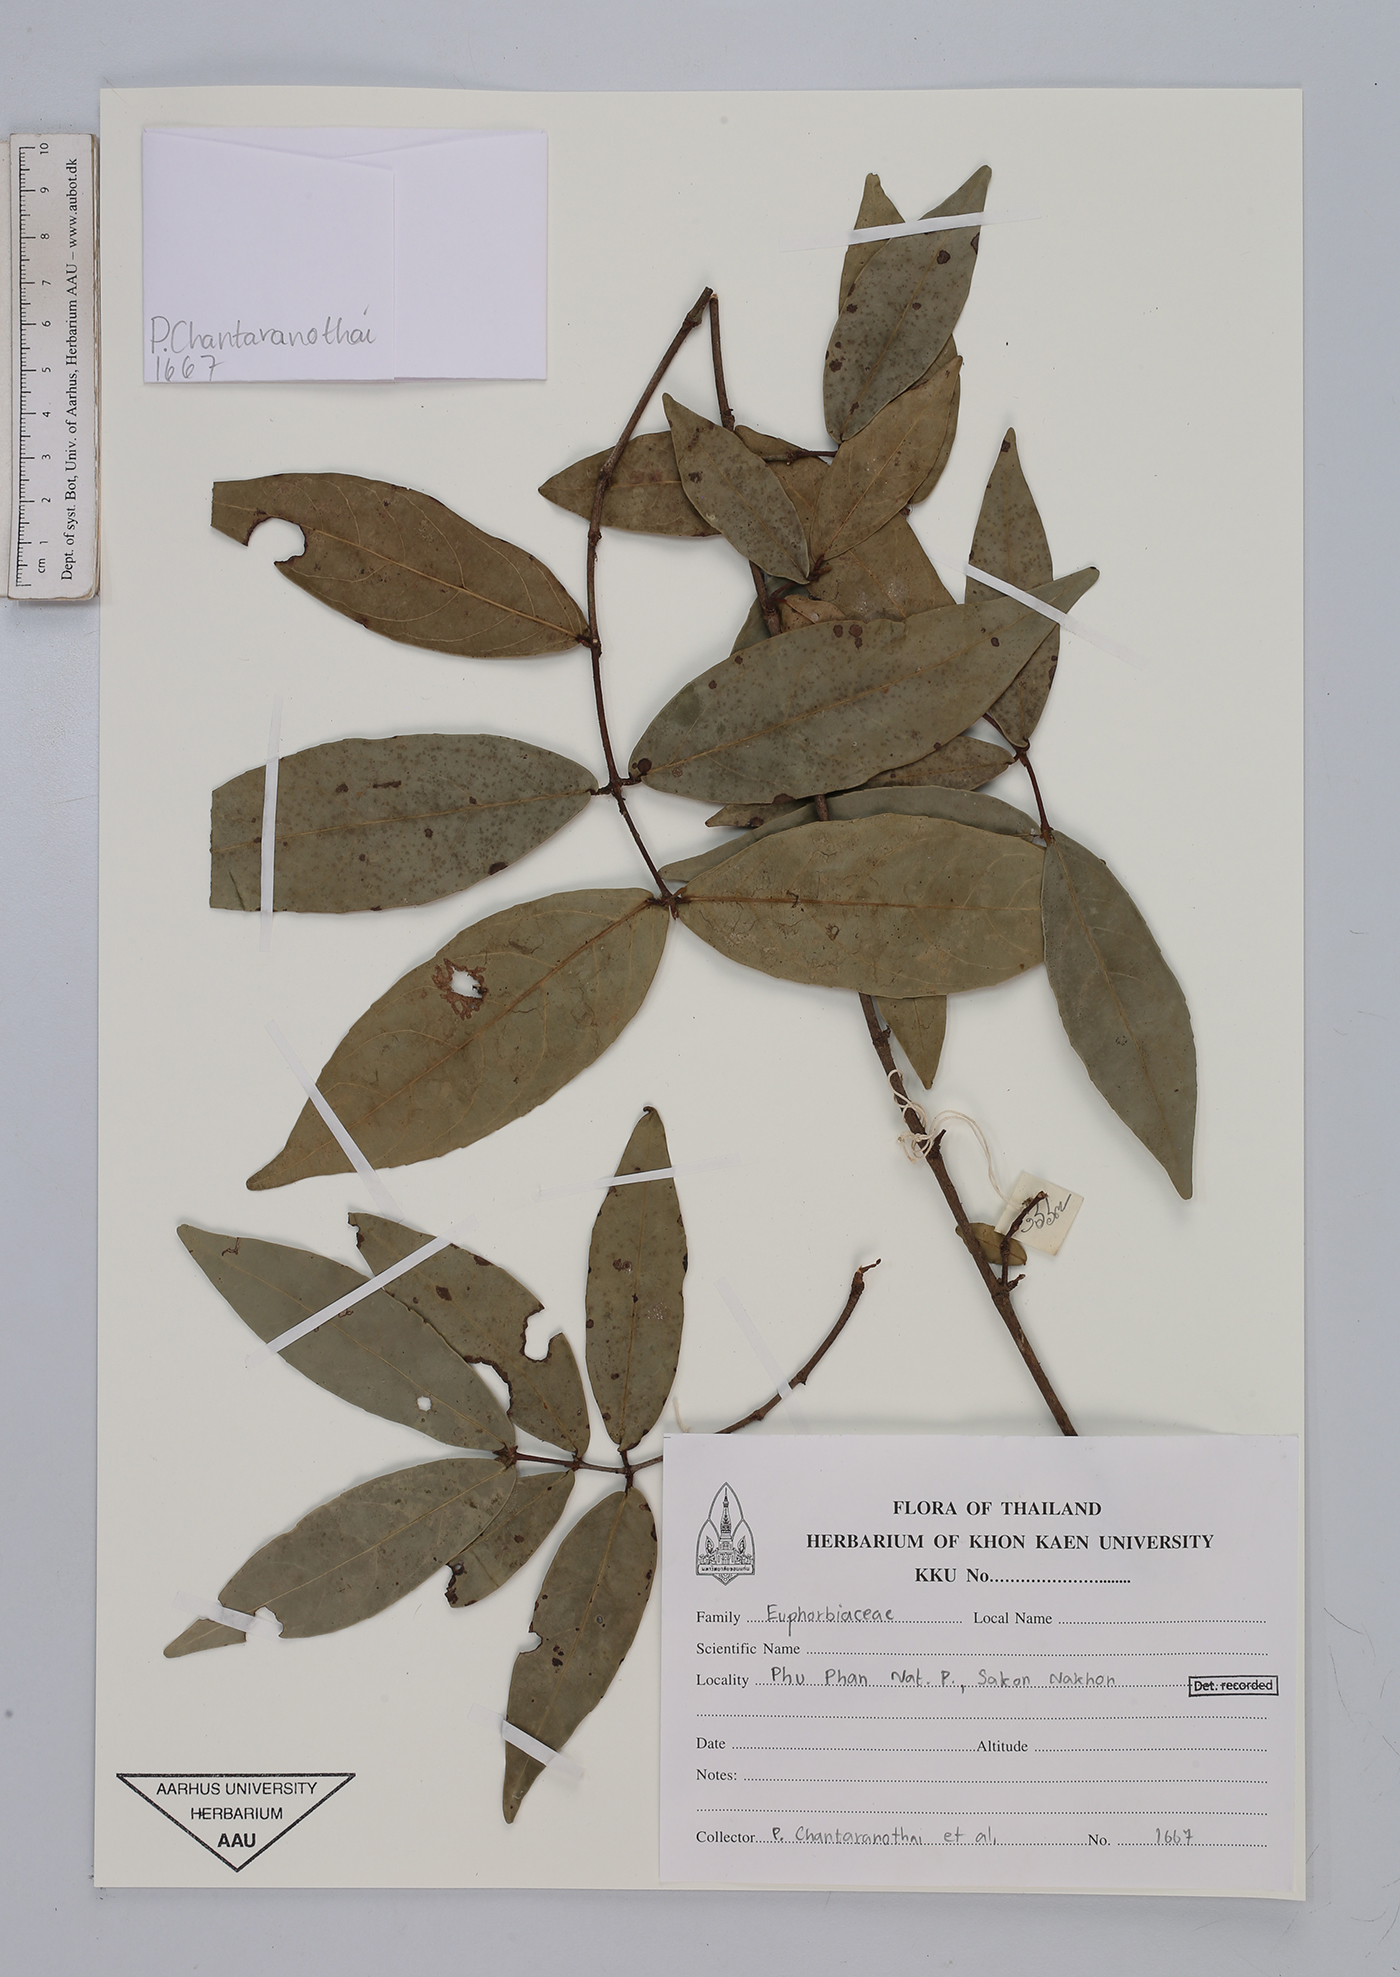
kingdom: Plantae
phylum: Tracheophyta
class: Magnoliopsida
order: Malpighiales
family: Euphorbiaceae
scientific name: Euphorbiaceae
